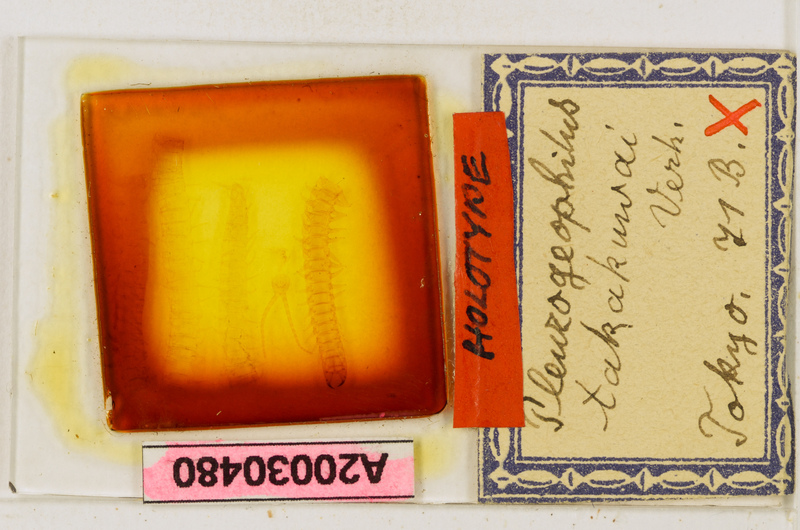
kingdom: Animalia
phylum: Arthropoda
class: Chilopoda
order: Geophilomorpha
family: Geophilidae
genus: Geophilus
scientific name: Geophilus procerus
